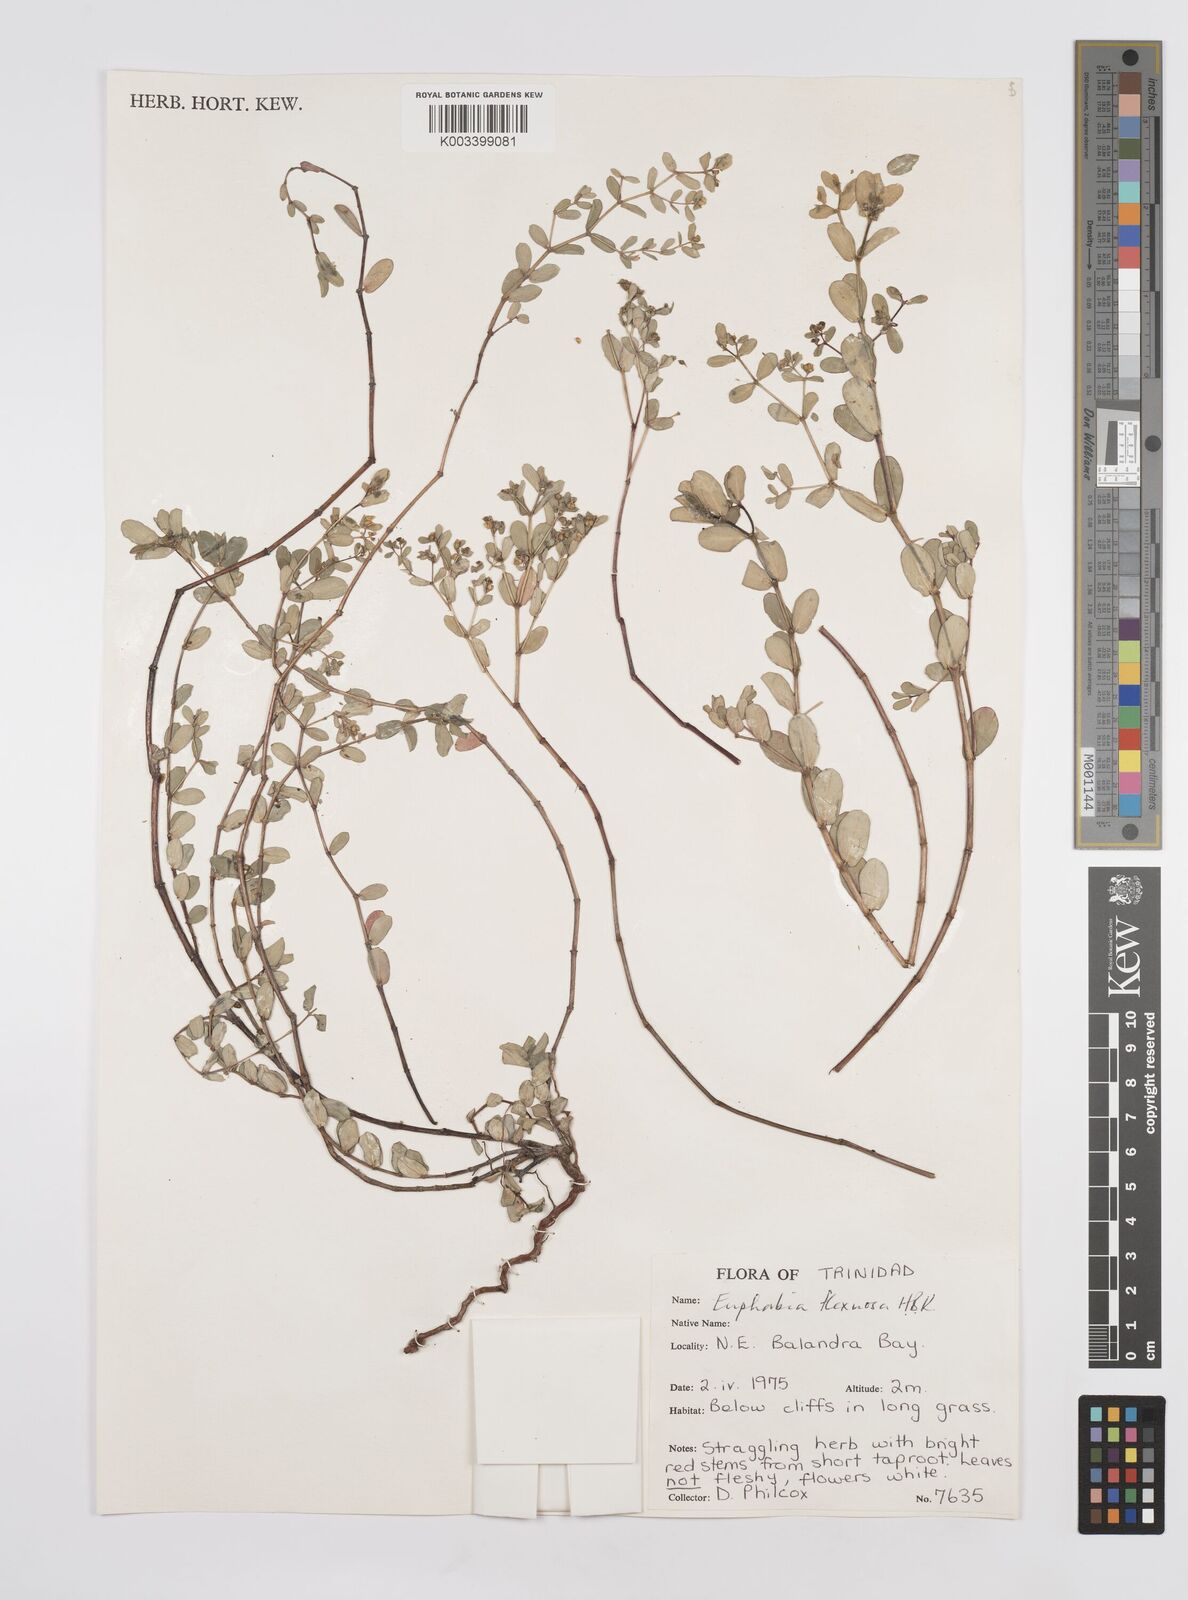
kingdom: Plantae
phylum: Tracheophyta
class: Magnoliopsida
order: Malpighiales
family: Euphorbiaceae
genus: Euphorbia
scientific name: Euphorbia mesembryanthemifolia
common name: Coastal beach sandmat
